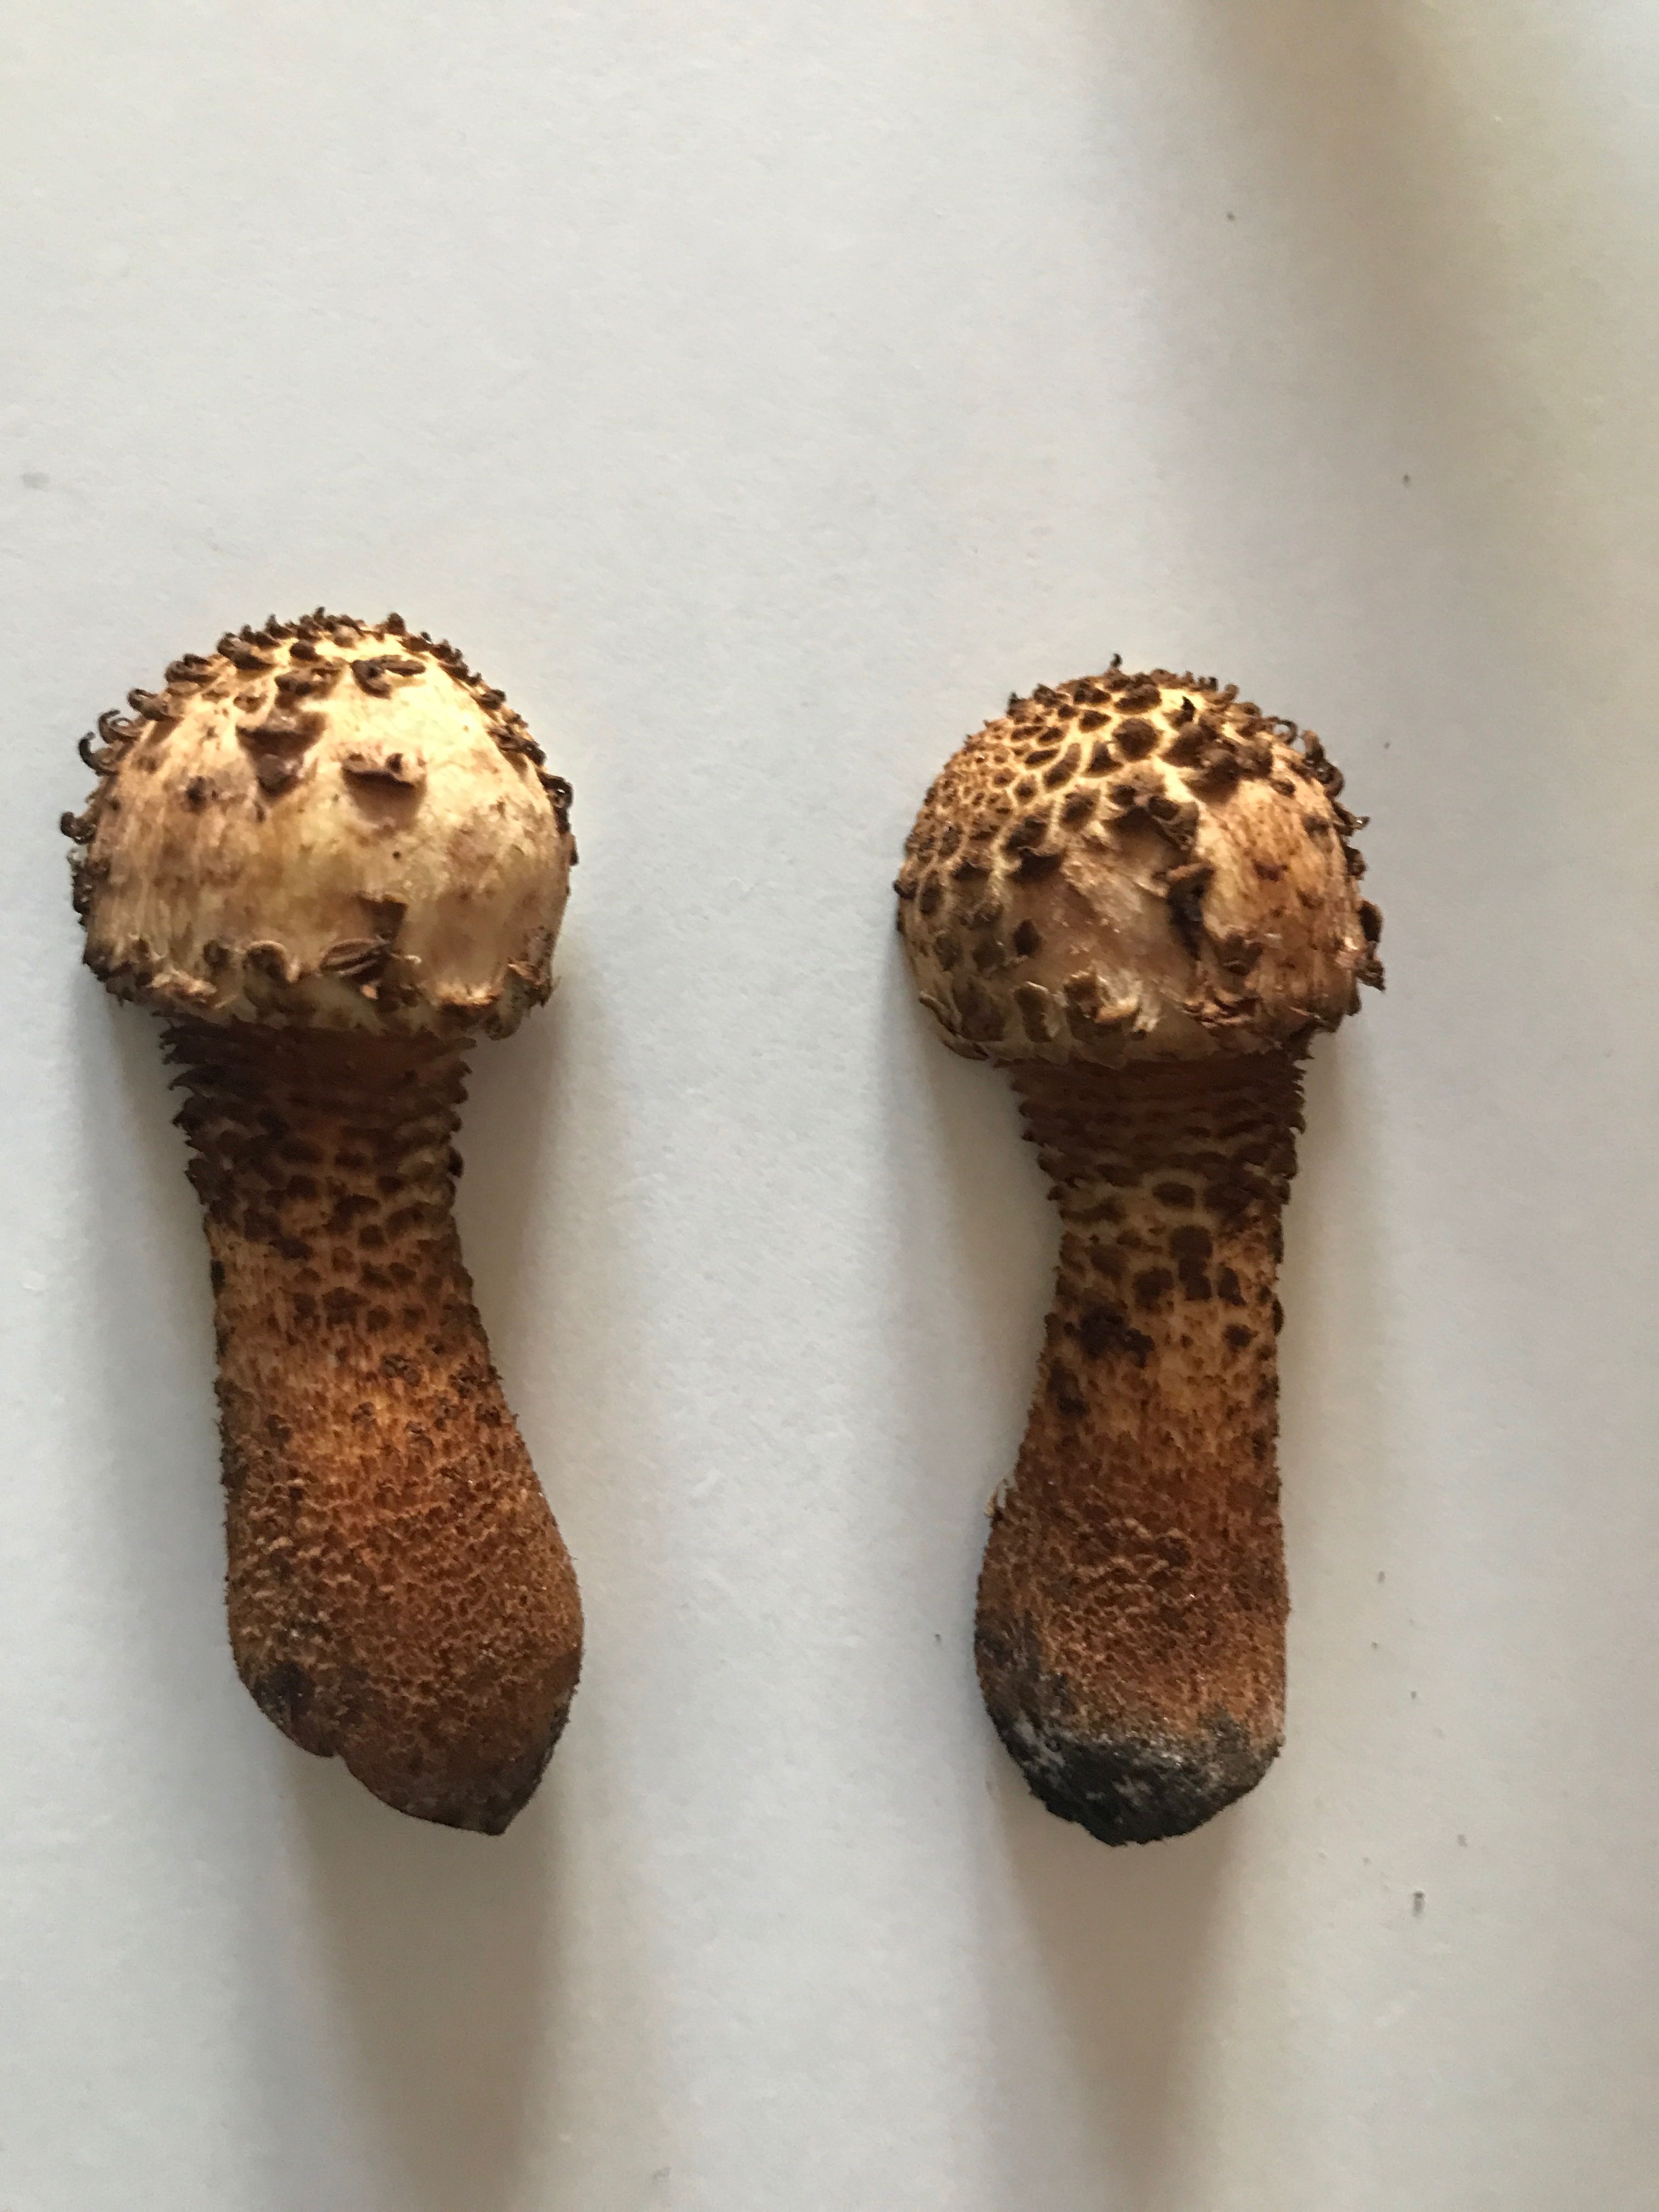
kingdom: Fungi
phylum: Basidiomycota
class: Agaricomycetes
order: Agaricales
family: Strophariaceae
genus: Pholiota
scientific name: Pholiota squarrosa
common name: krumskællet skælhat
